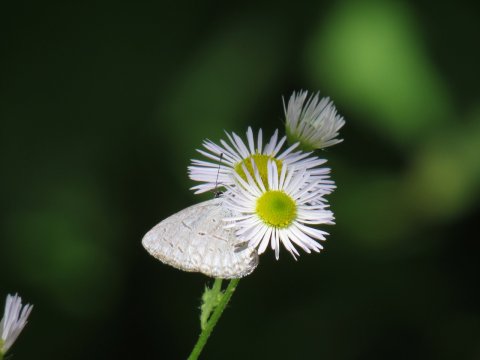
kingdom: Animalia
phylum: Arthropoda
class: Insecta
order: Lepidoptera
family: Lycaenidae
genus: Celastrina
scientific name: Celastrina
